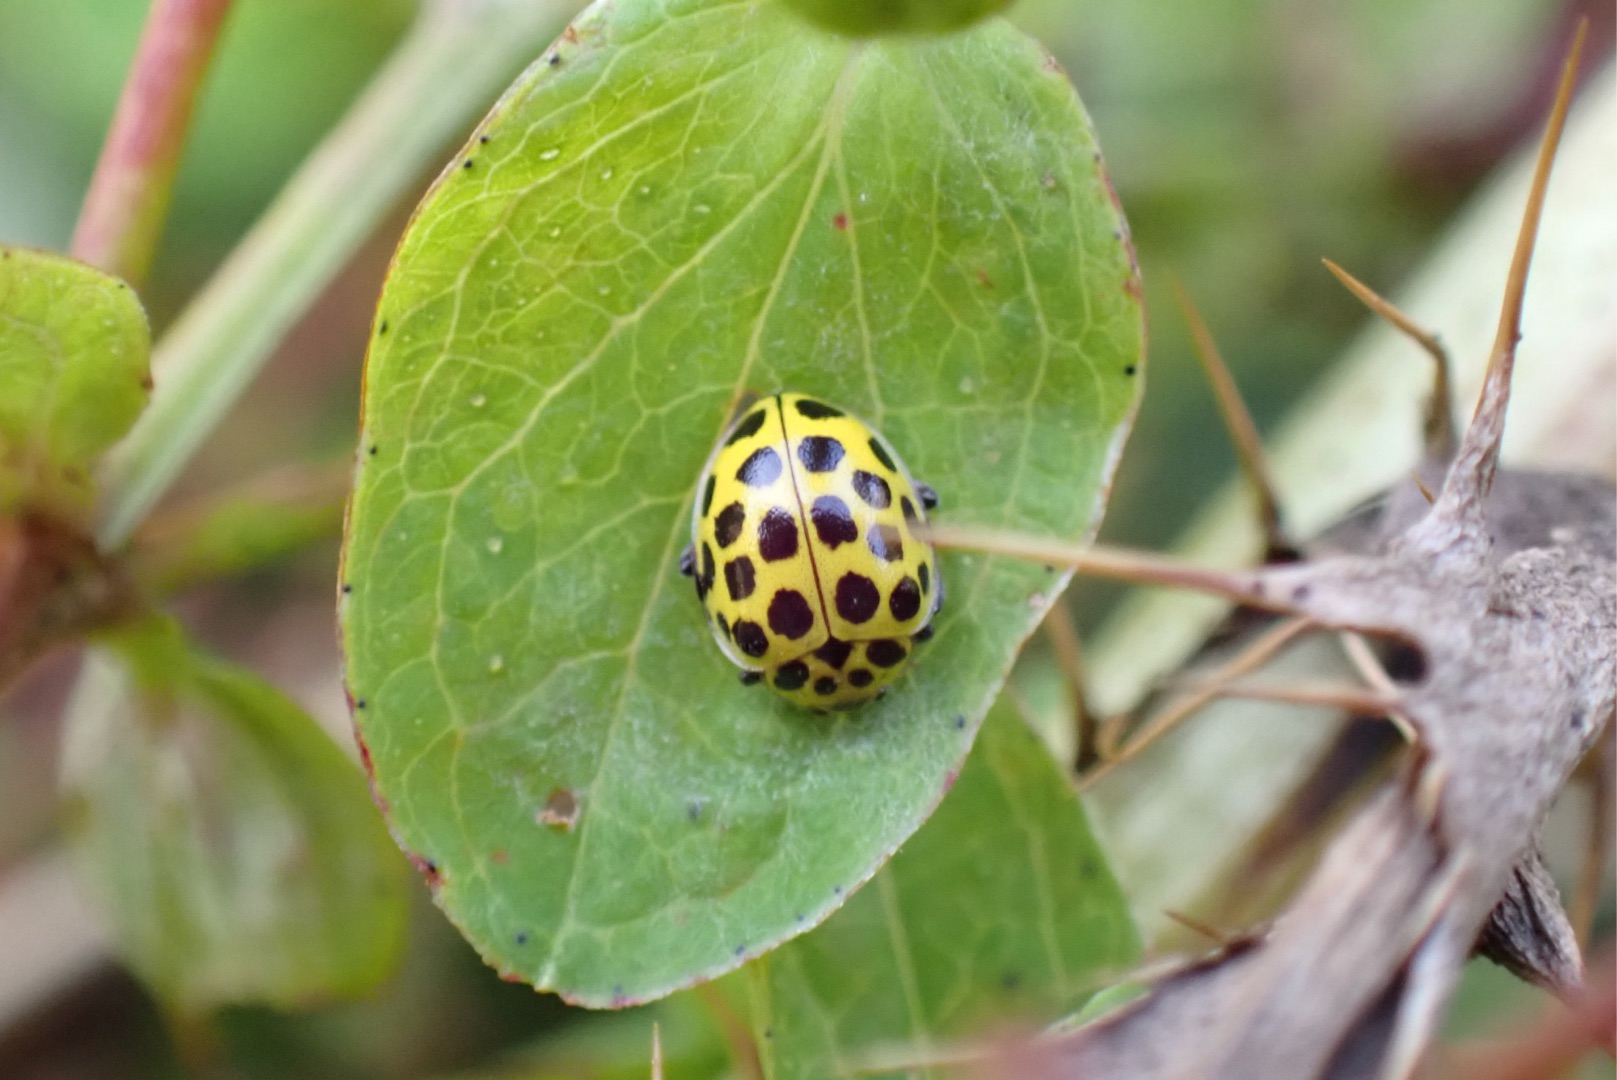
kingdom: Animalia
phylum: Arthropoda
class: Insecta
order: Coleoptera
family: Coccinellidae
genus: Psyllobora
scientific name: Psyllobora vigintiduopunctata
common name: Toogtyveplettet mariehøne
